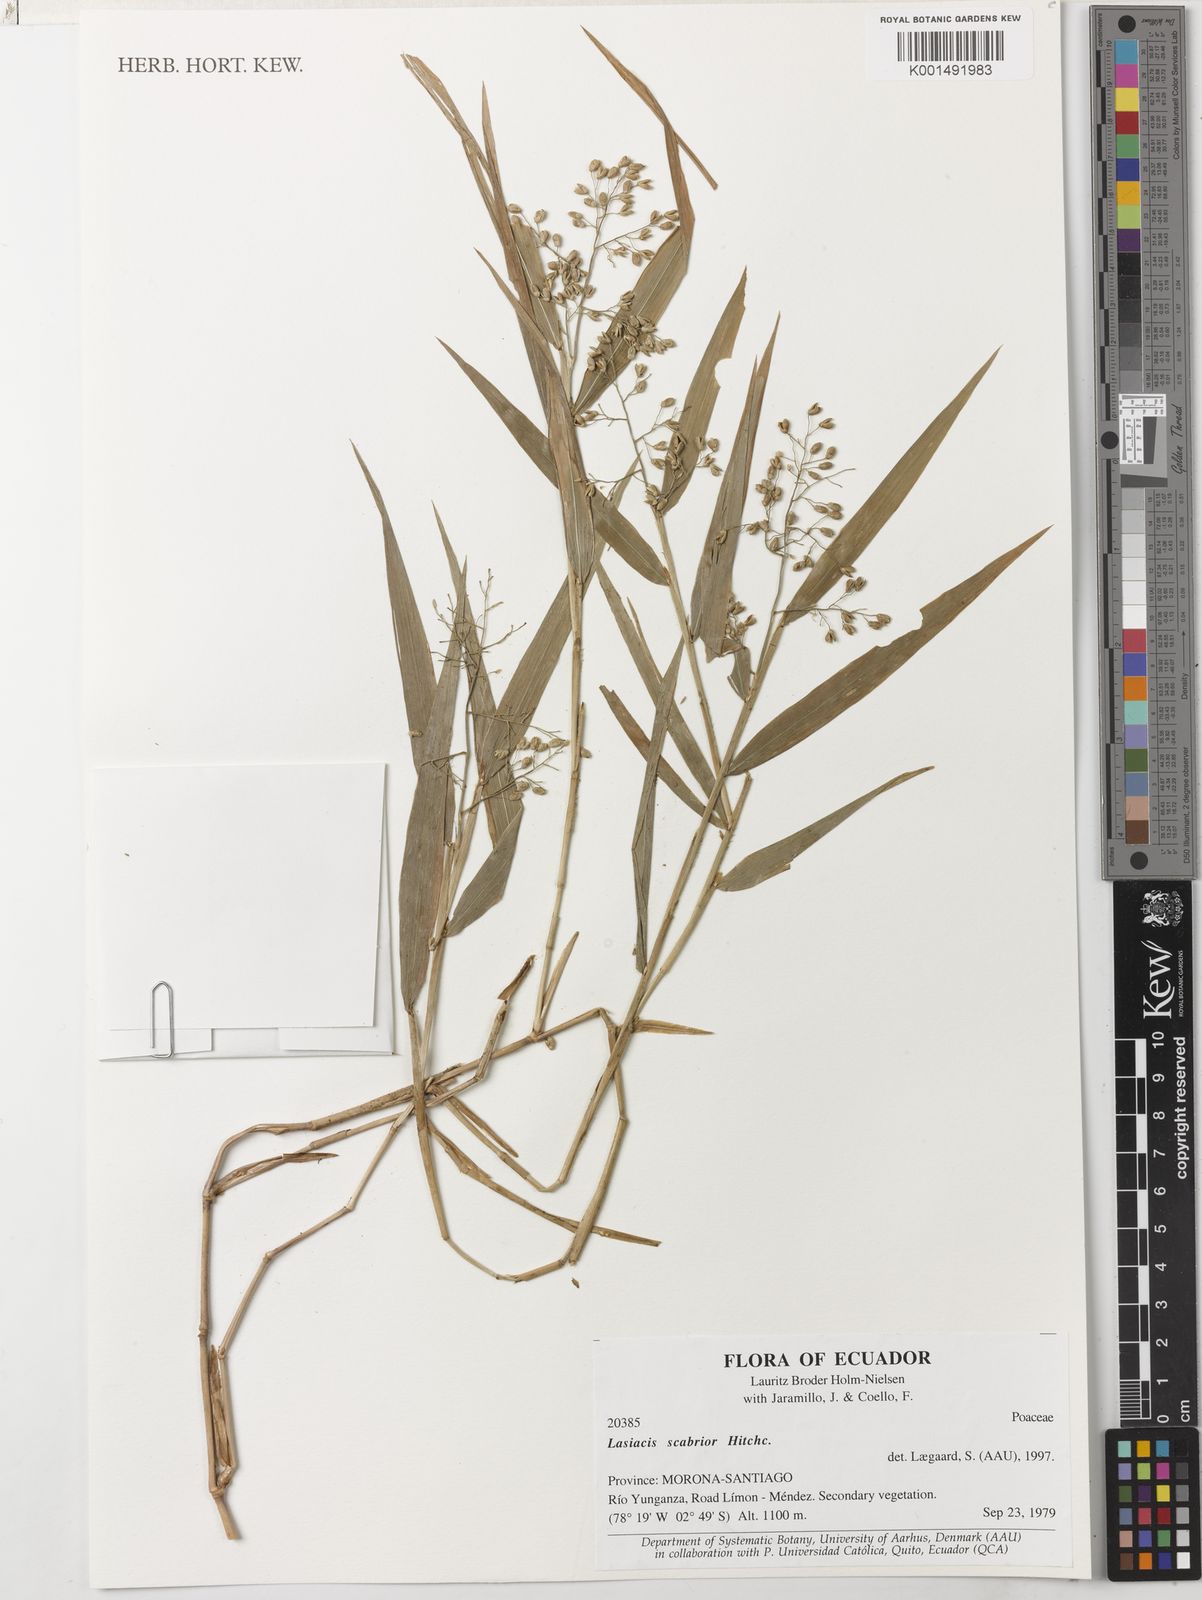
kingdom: Plantae
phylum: Tracheophyta
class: Liliopsida
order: Poales
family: Poaceae
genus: Lasiacis
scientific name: Lasiacis scabrior
